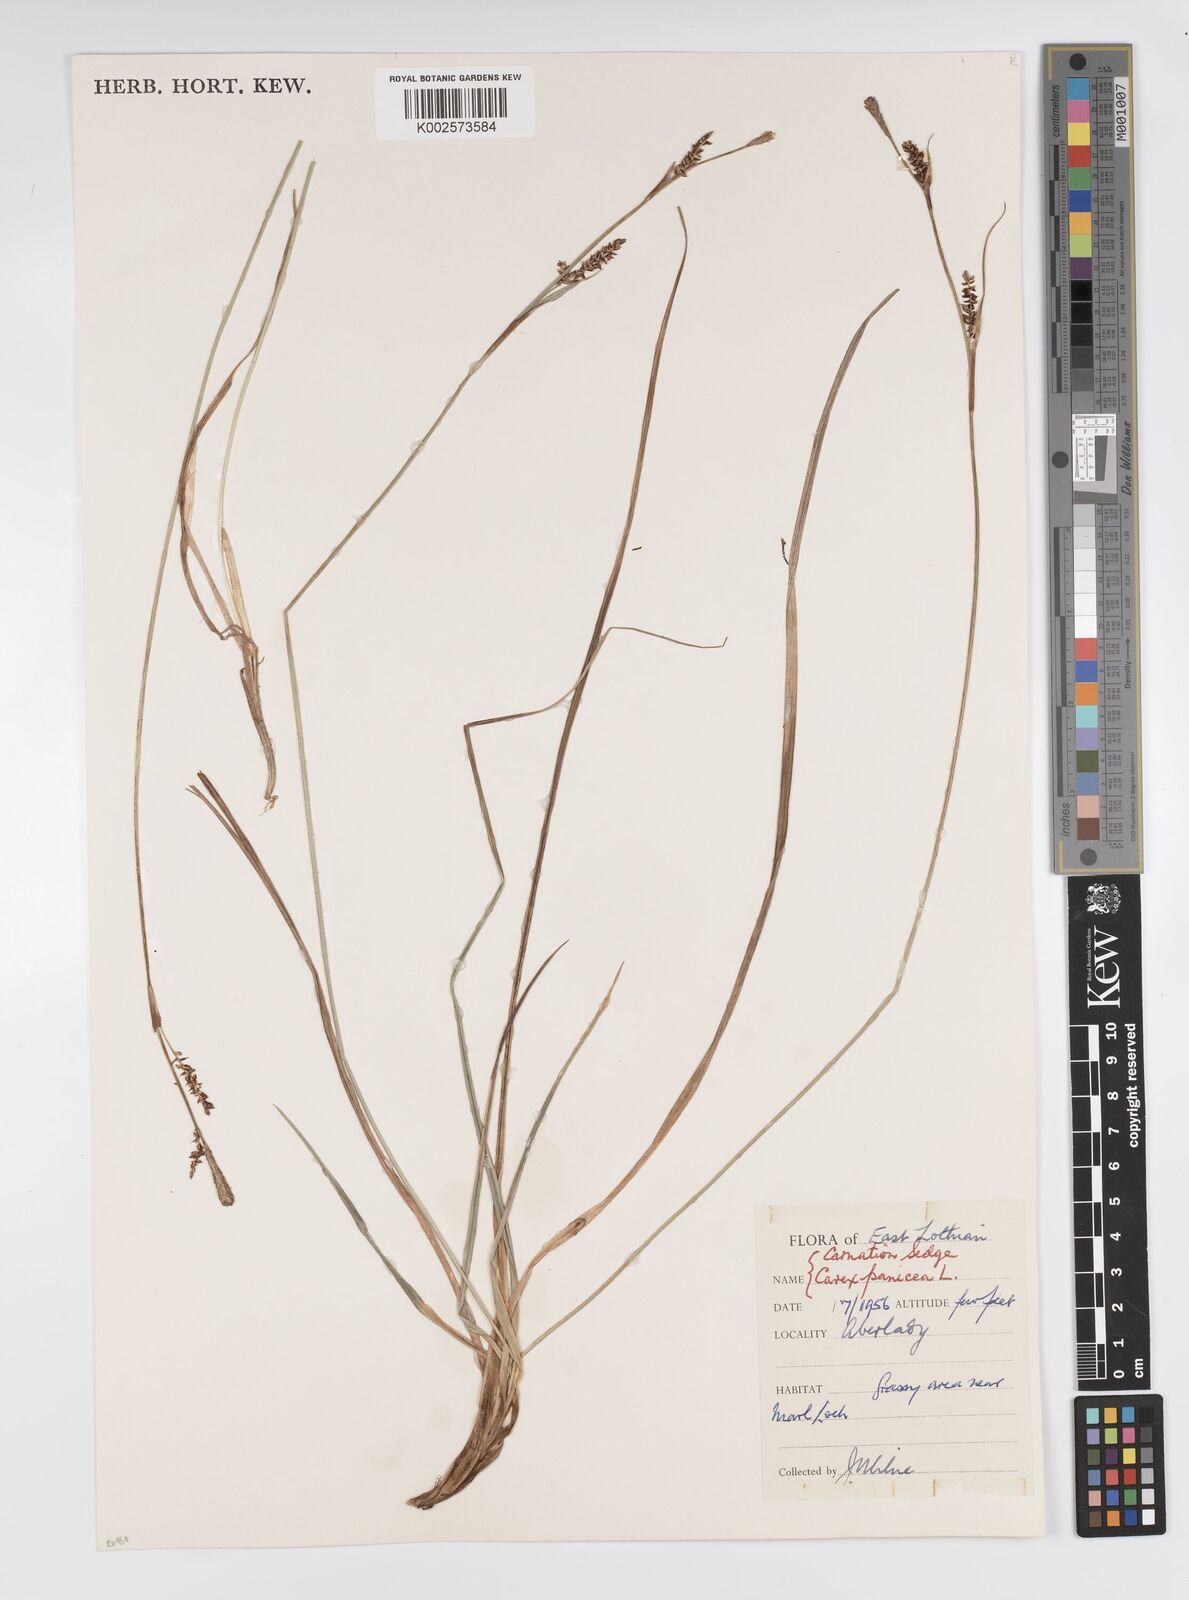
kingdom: Plantae
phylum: Tracheophyta
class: Liliopsida
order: Poales
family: Cyperaceae
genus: Carex
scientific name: Carex panicea
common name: Carnation sedge
